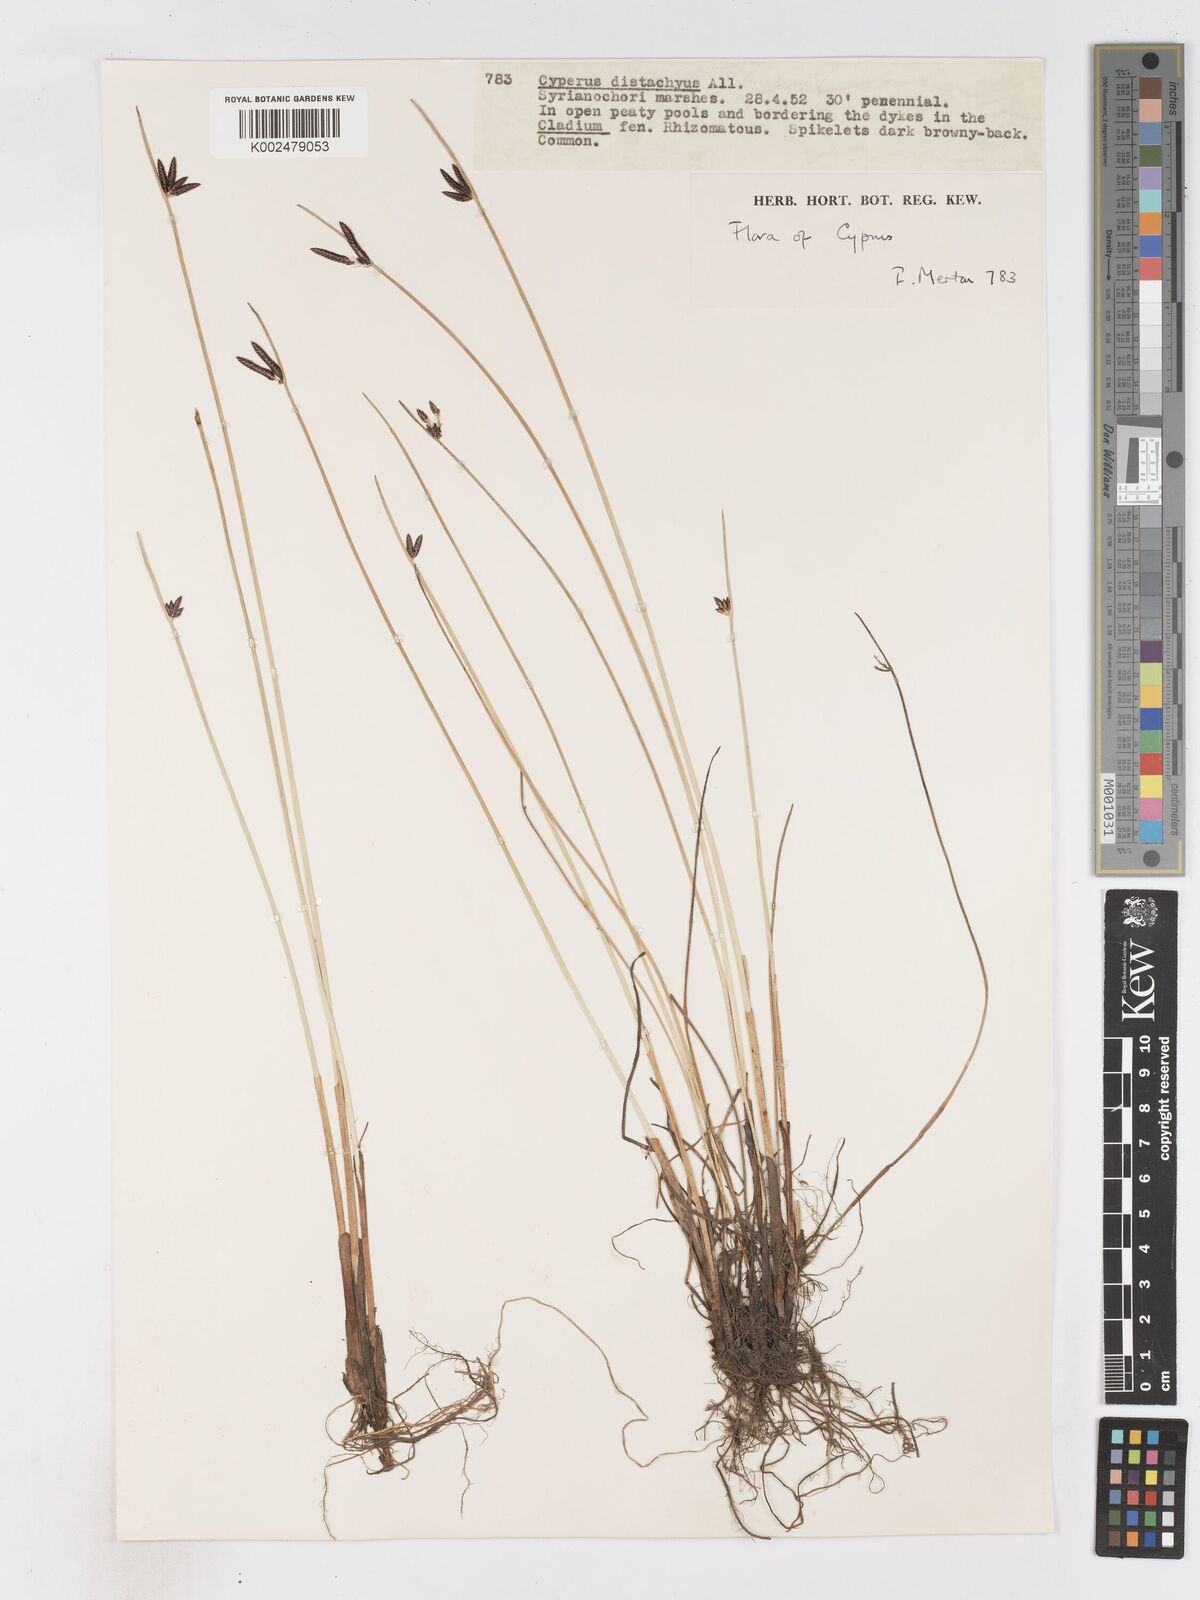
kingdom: Plantae
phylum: Tracheophyta
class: Liliopsida
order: Poales
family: Cyperaceae
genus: Cyperus
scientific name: Cyperus laevigatus
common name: Smooth flat sedge
